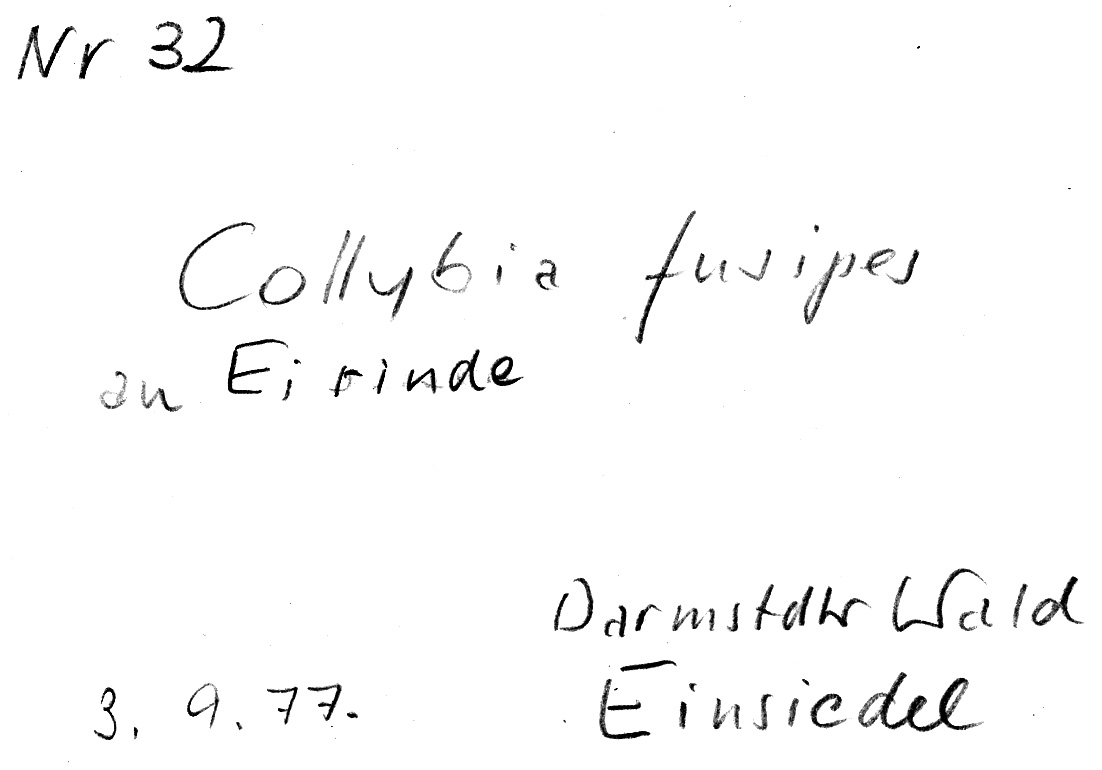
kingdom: Fungi
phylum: Basidiomycota
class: Agaricomycetes
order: Agaricales
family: Omphalotaceae
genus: Gymnopus
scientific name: Gymnopus fusipes
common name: Spindle shank
